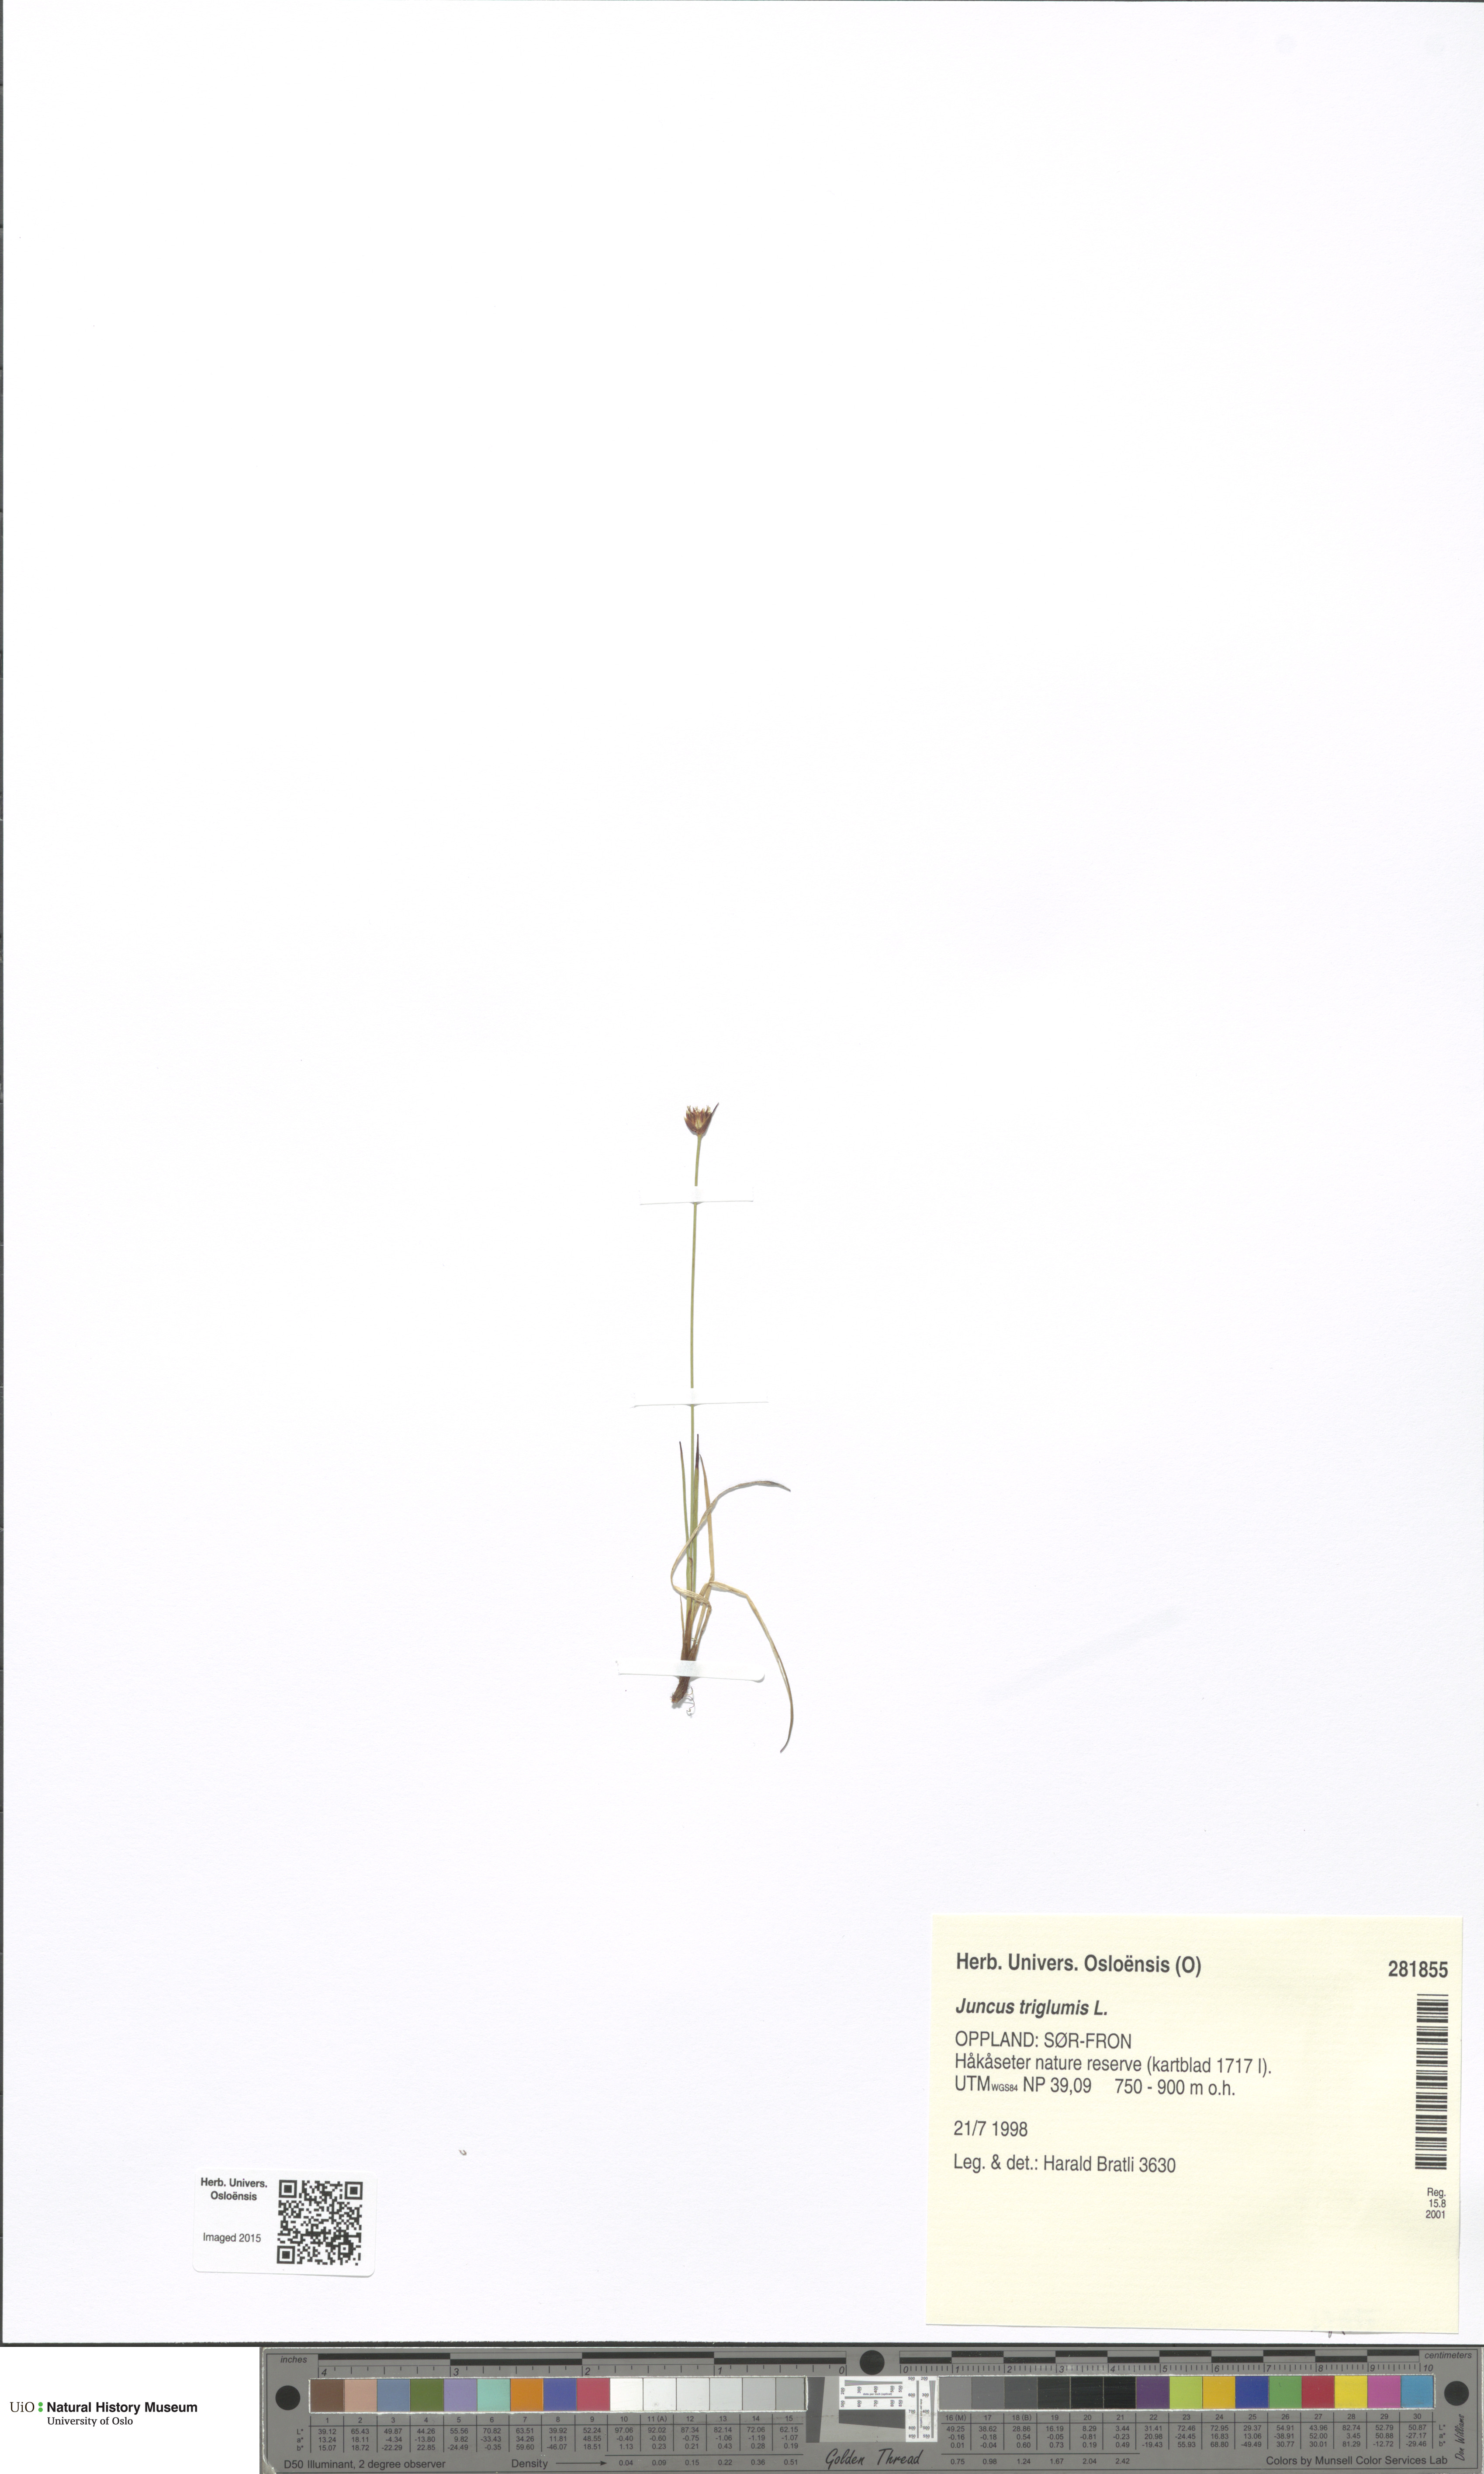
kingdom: Plantae
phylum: Tracheophyta
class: Liliopsida
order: Poales
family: Juncaceae
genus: Juncus
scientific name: Juncus triglumis
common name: Three-flowered rush
